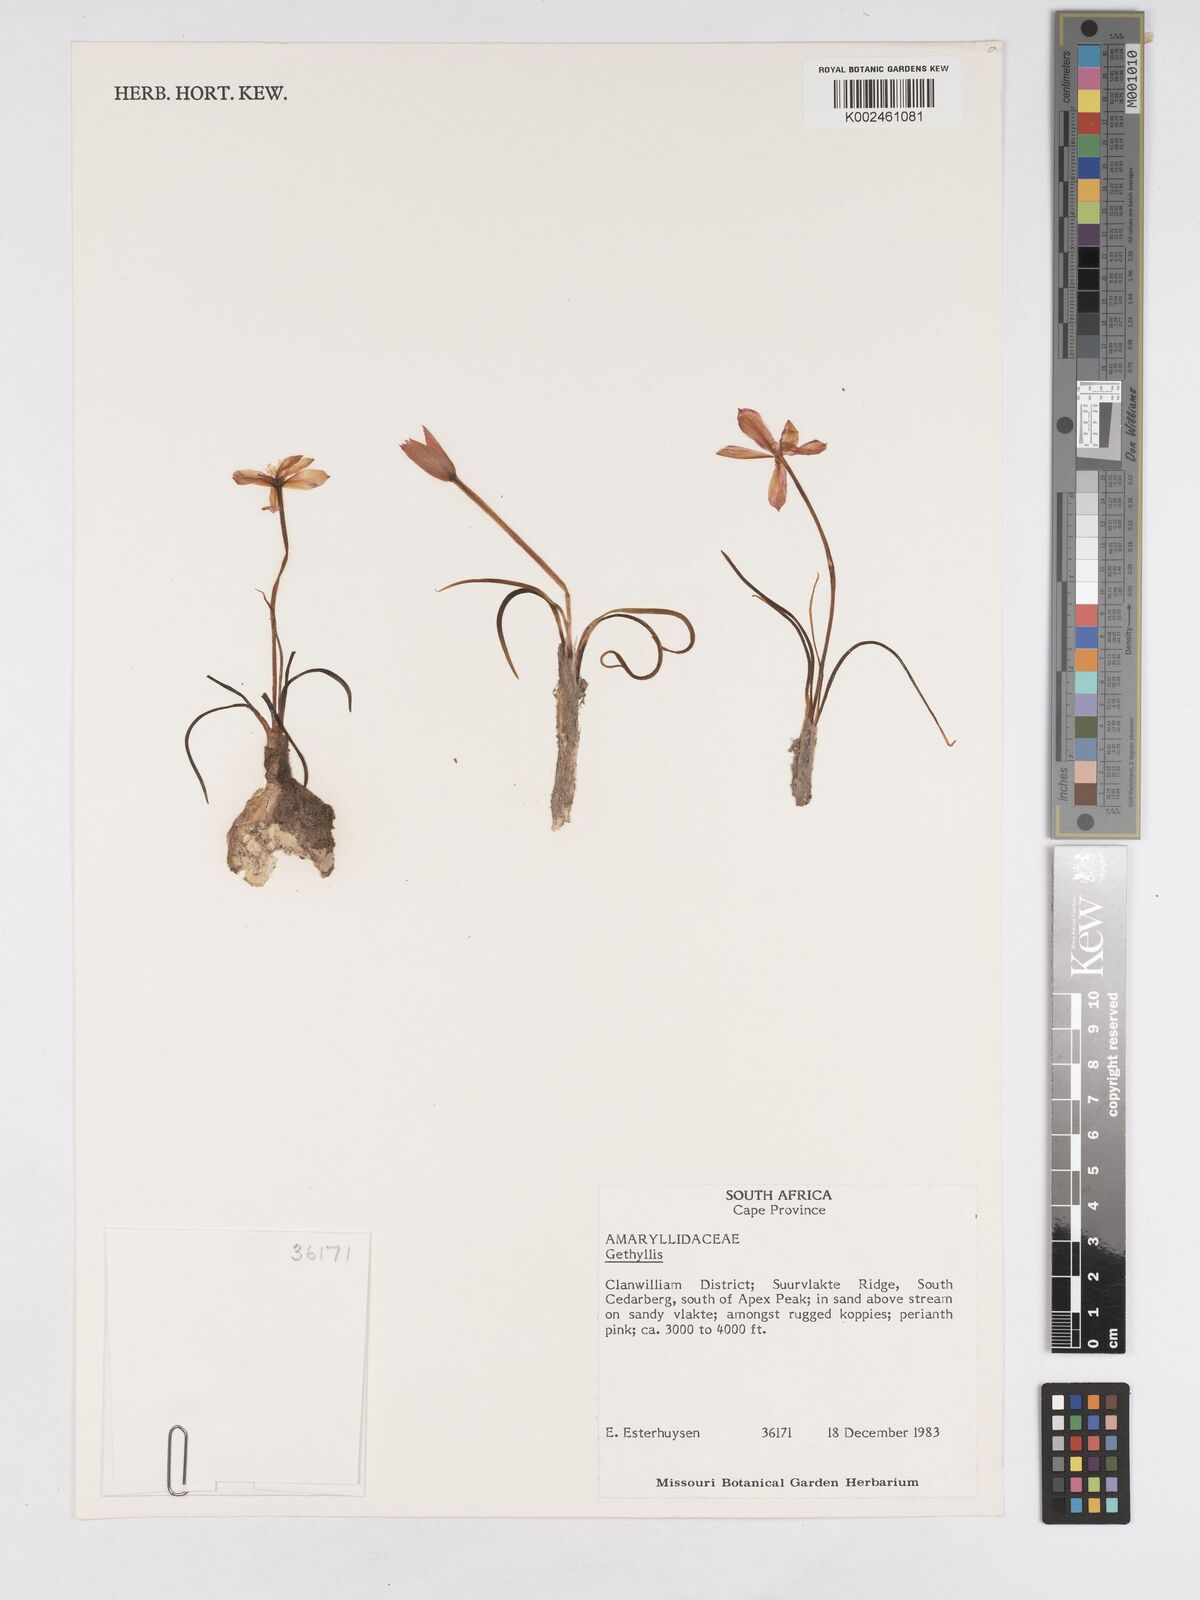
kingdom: Plantae
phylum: Tracheophyta
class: Liliopsida
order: Asparagales
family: Amaryllidaceae
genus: Gethyllis
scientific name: Gethyllis
